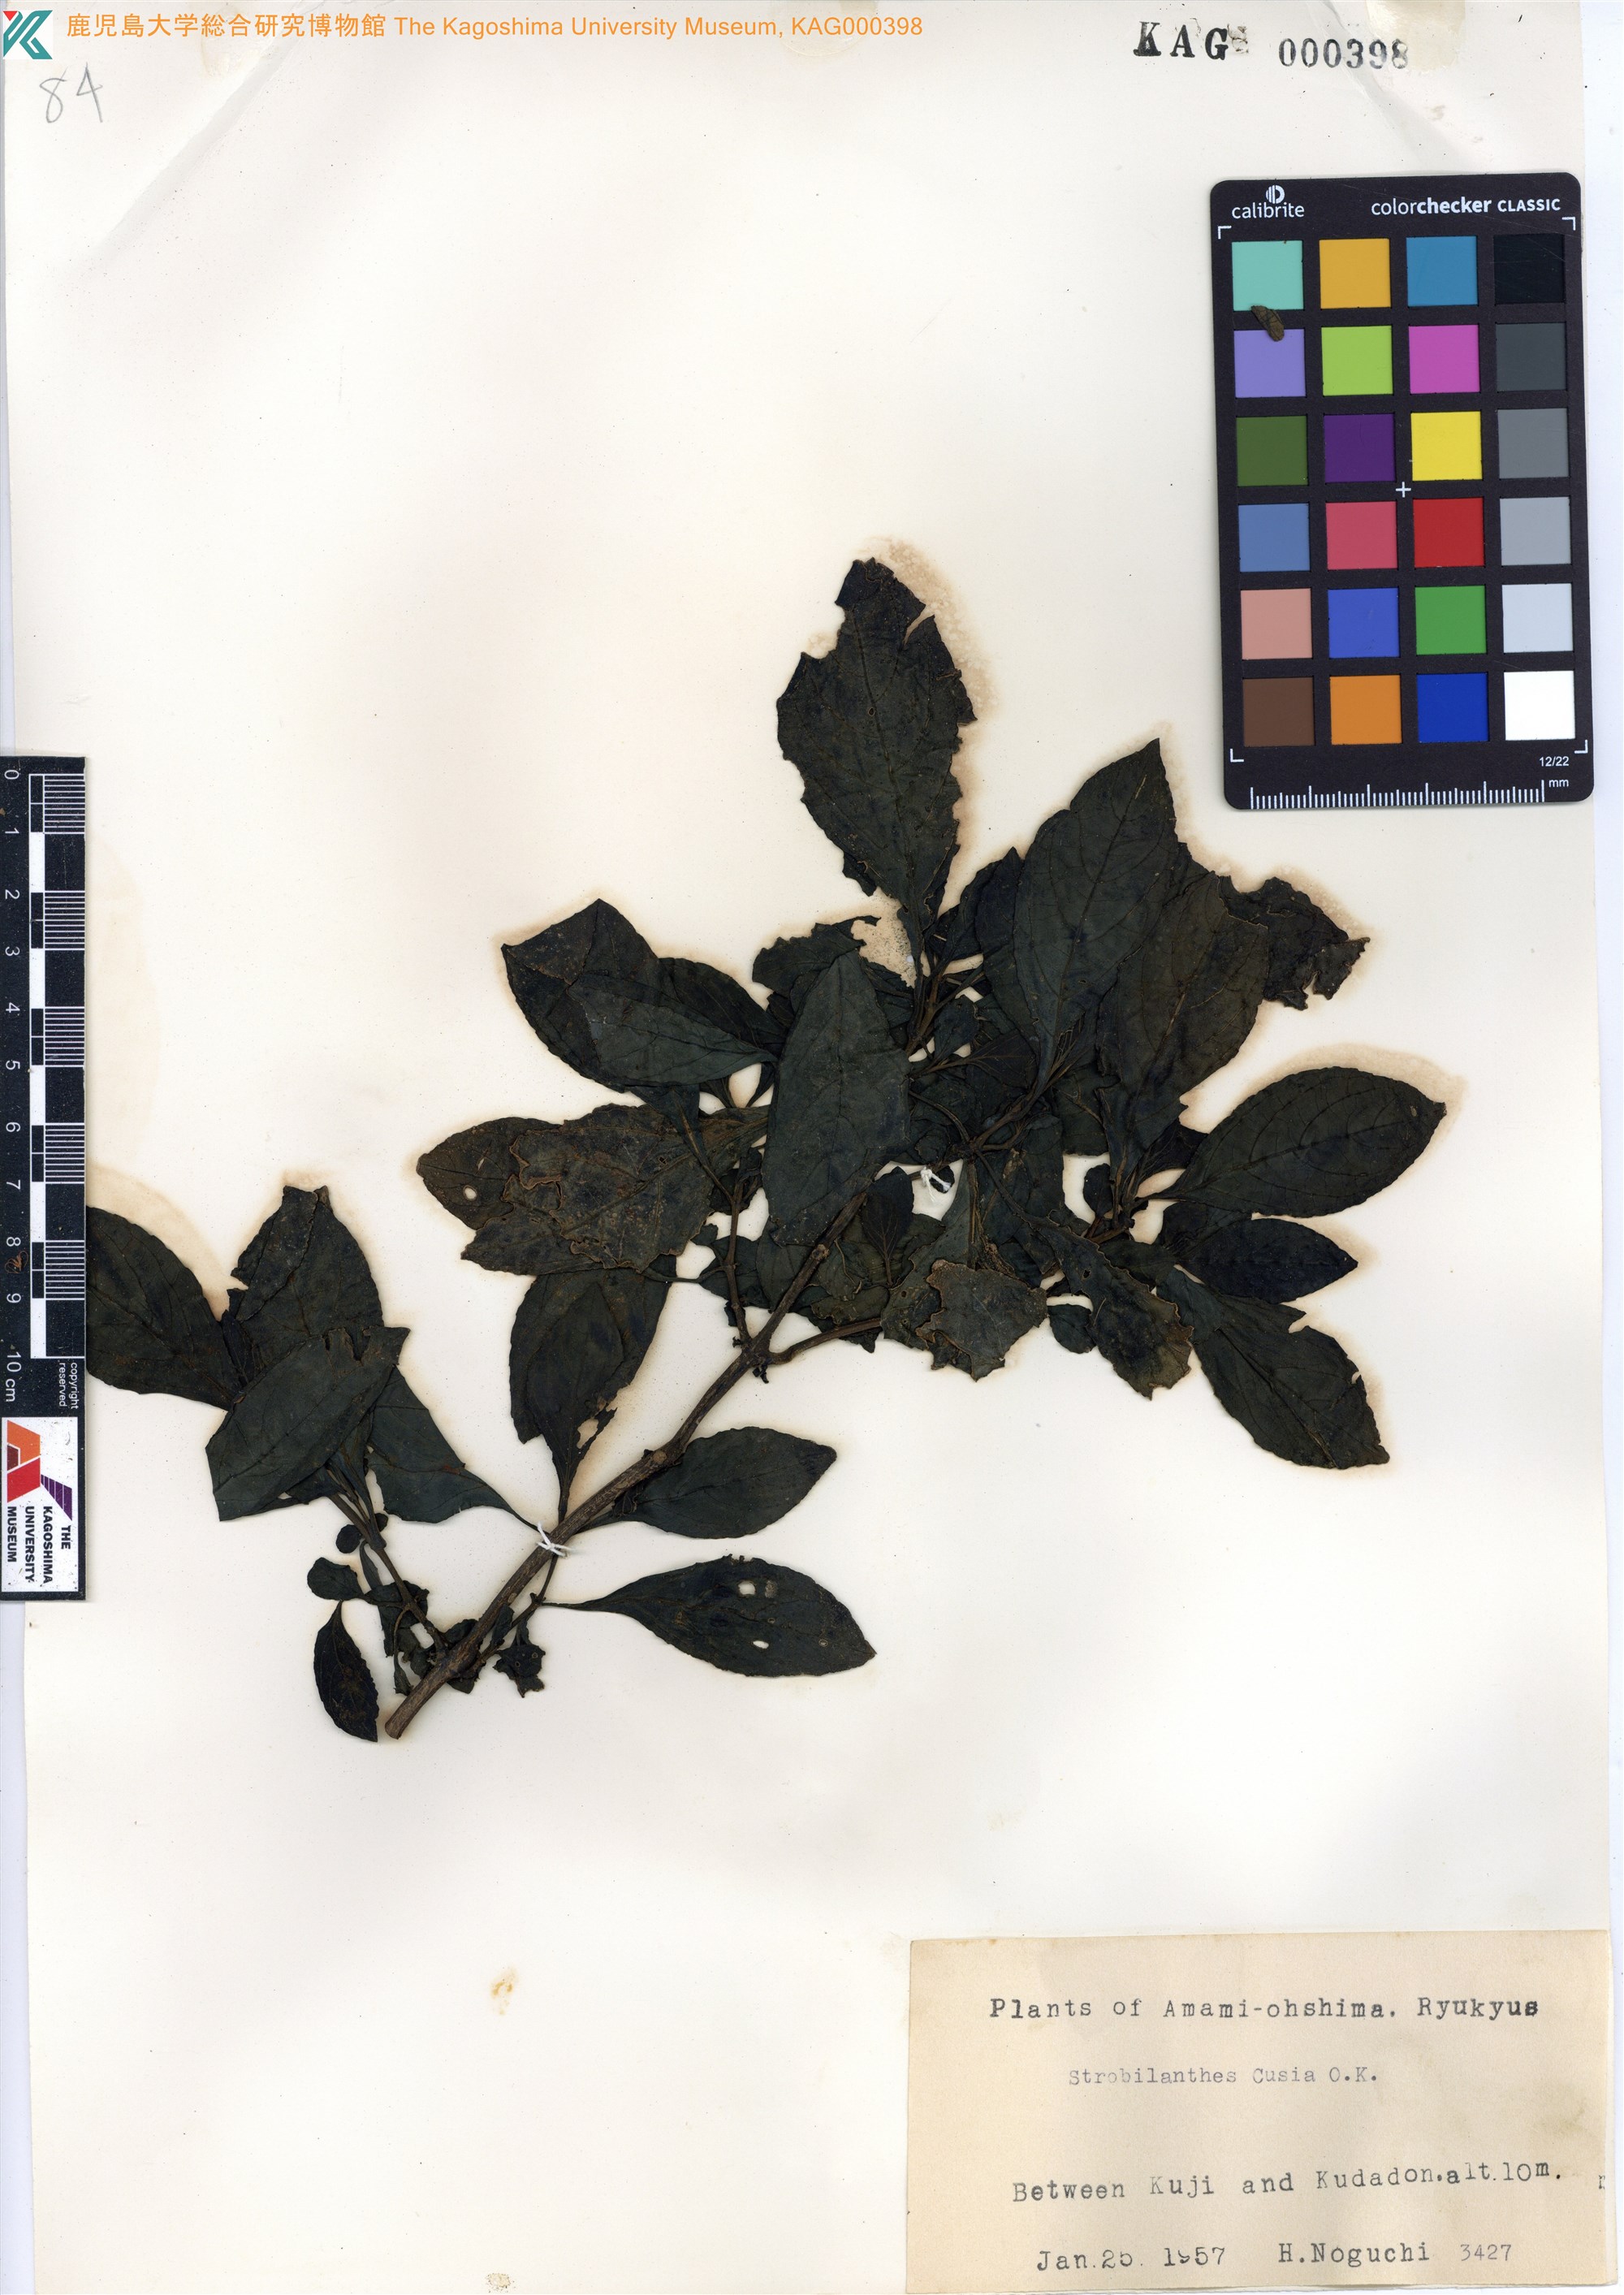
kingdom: Plantae
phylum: Tracheophyta
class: Magnoliopsida
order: Lamiales
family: Acanthaceae
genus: Strobilanthes
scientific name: Strobilanthes cusia
